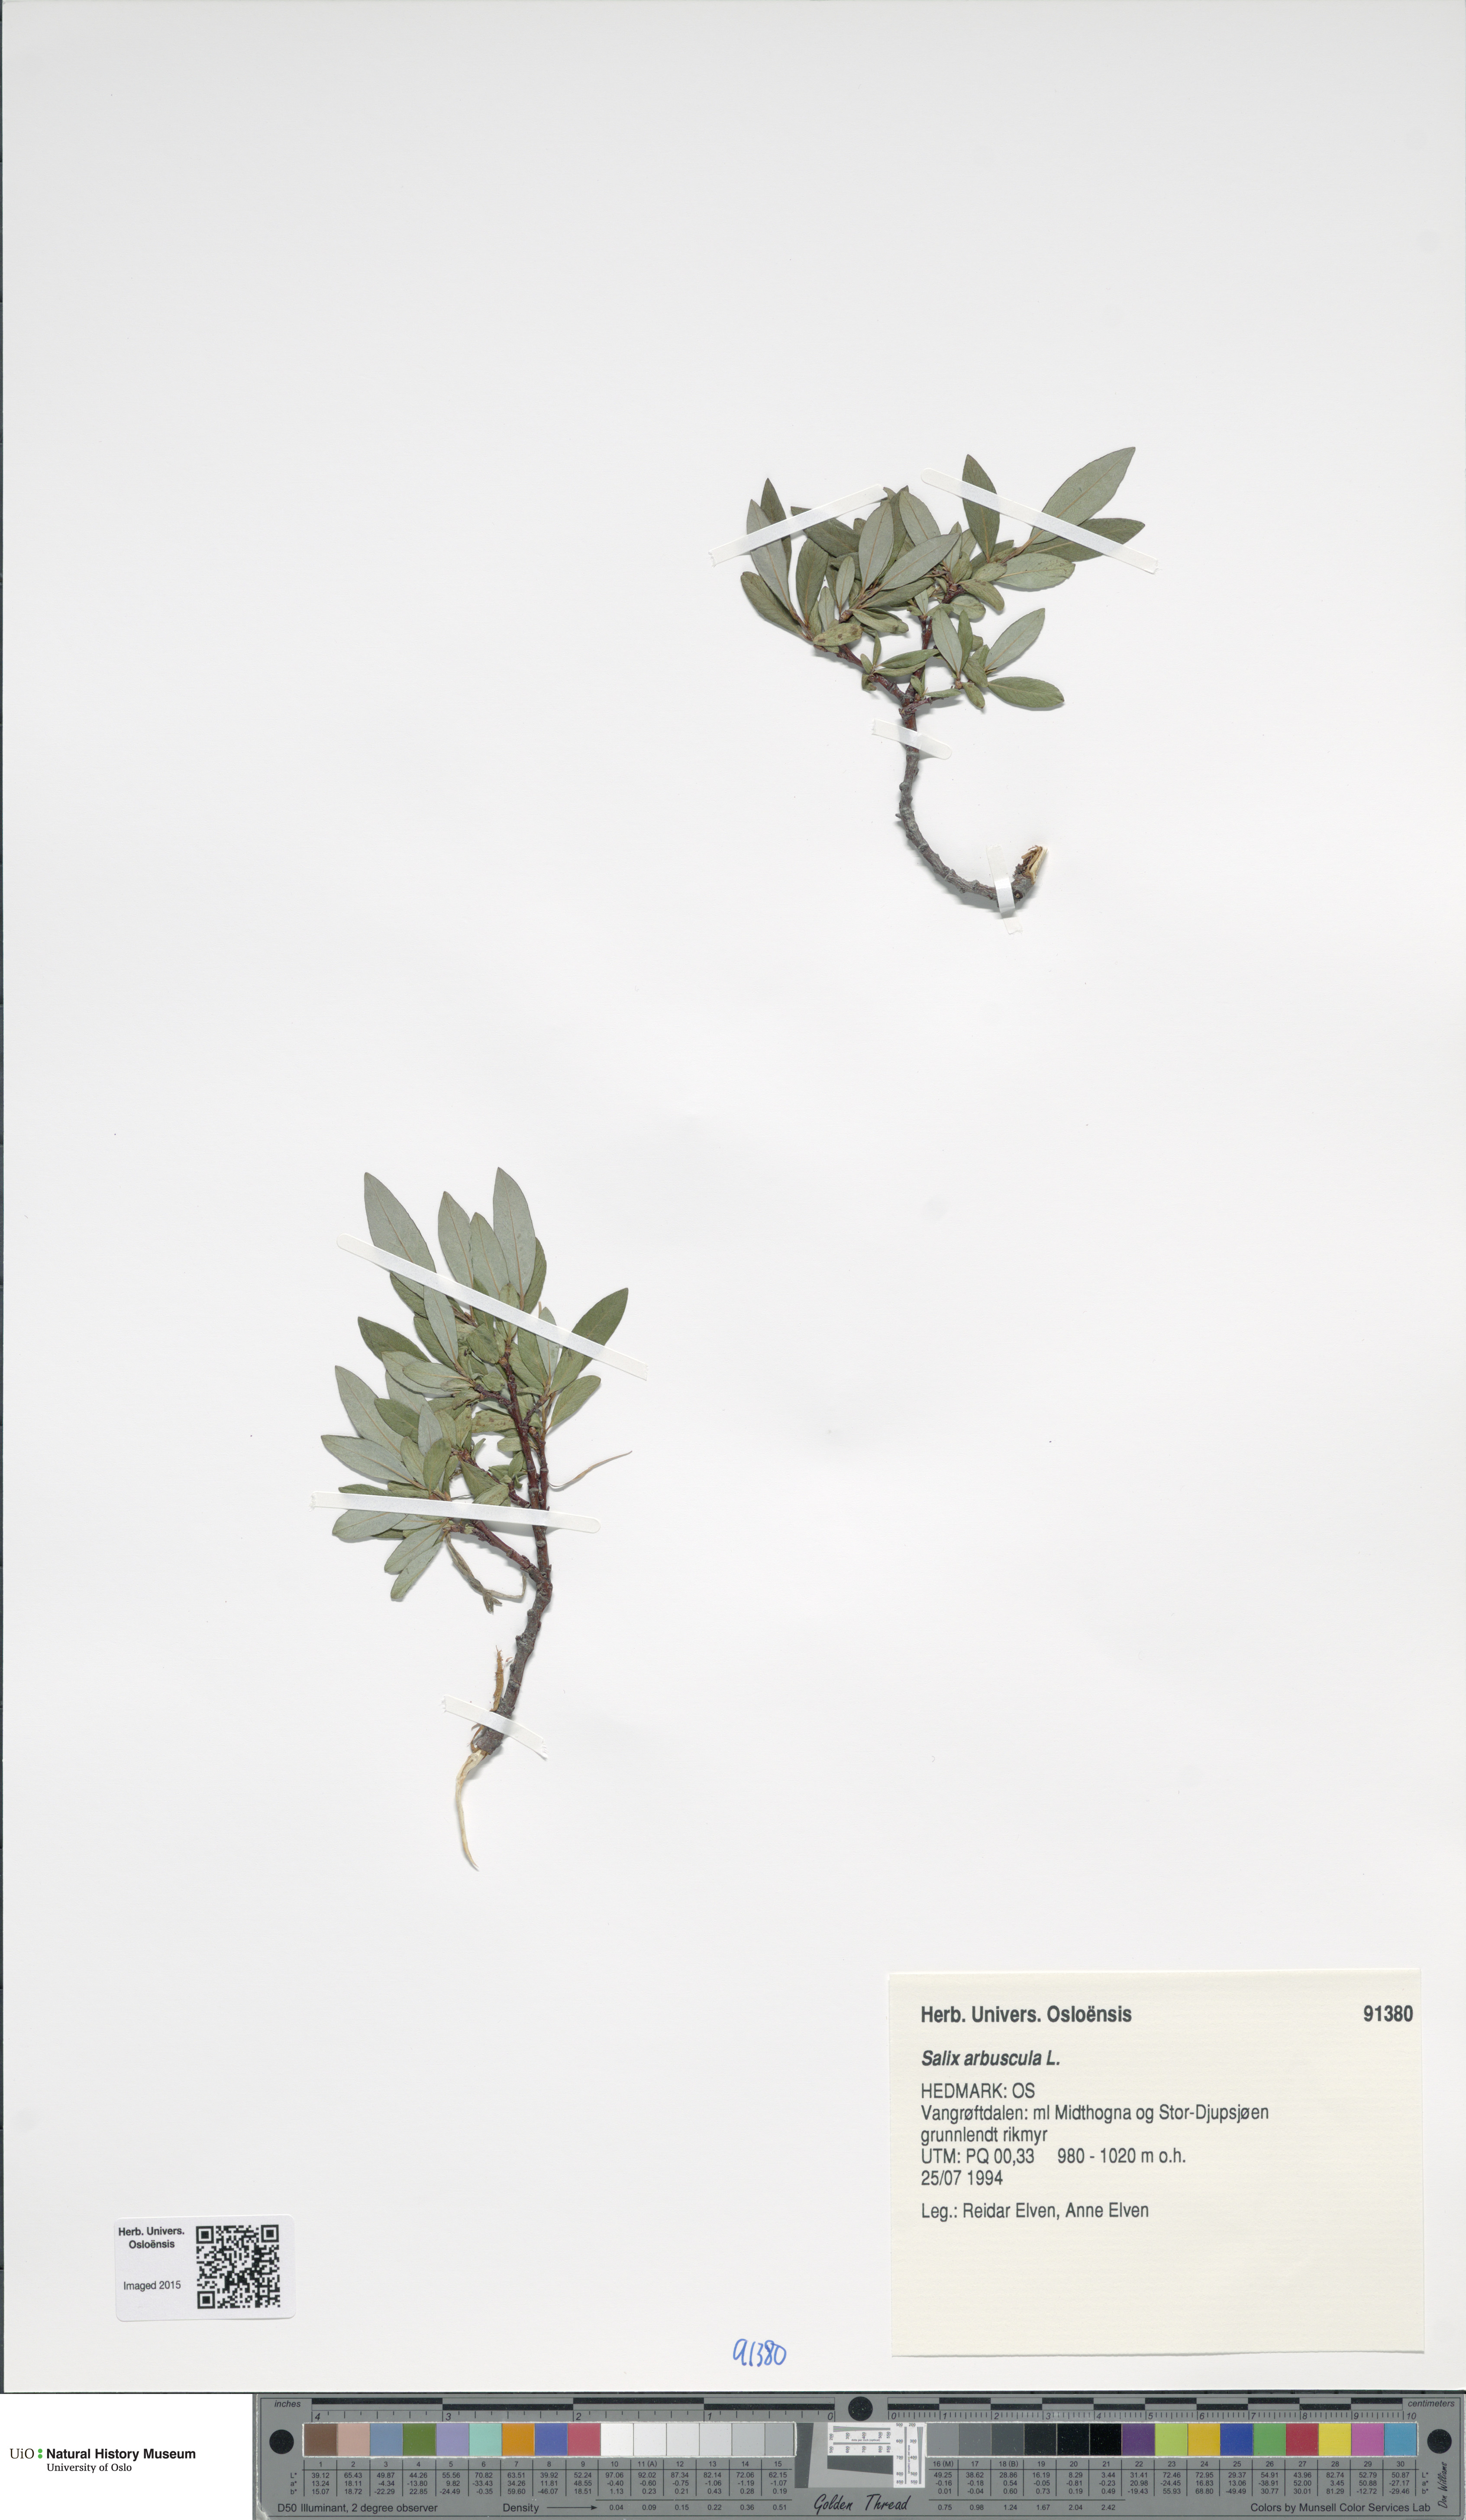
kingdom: Plantae
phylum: Tracheophyta
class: Magnoliopsida
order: Malpighiales
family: Salicaceae
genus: Salix
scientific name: Salix arbuscula
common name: Mountain willow
